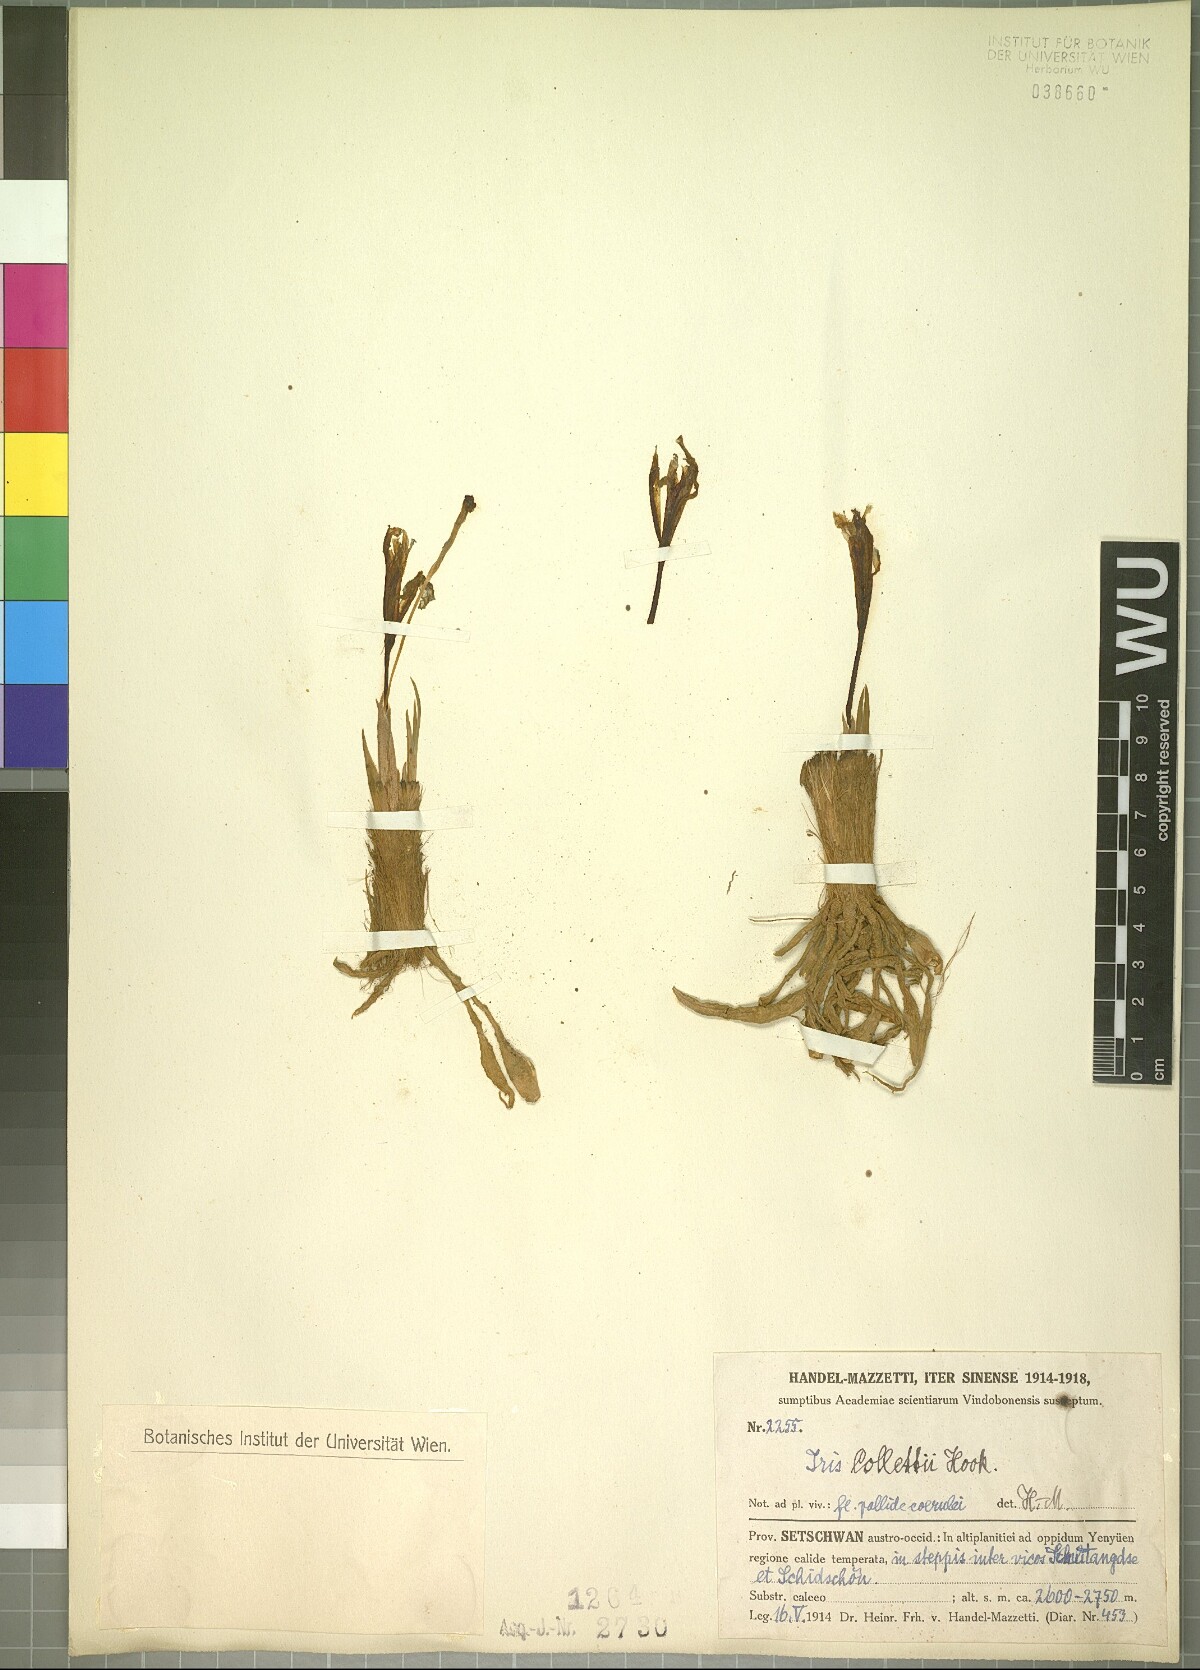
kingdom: Plantae
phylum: Tracheophyta
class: Liliopsida
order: Asparagales
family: Iridaceae
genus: Iris
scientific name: Iris collettii
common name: Plateau iris
